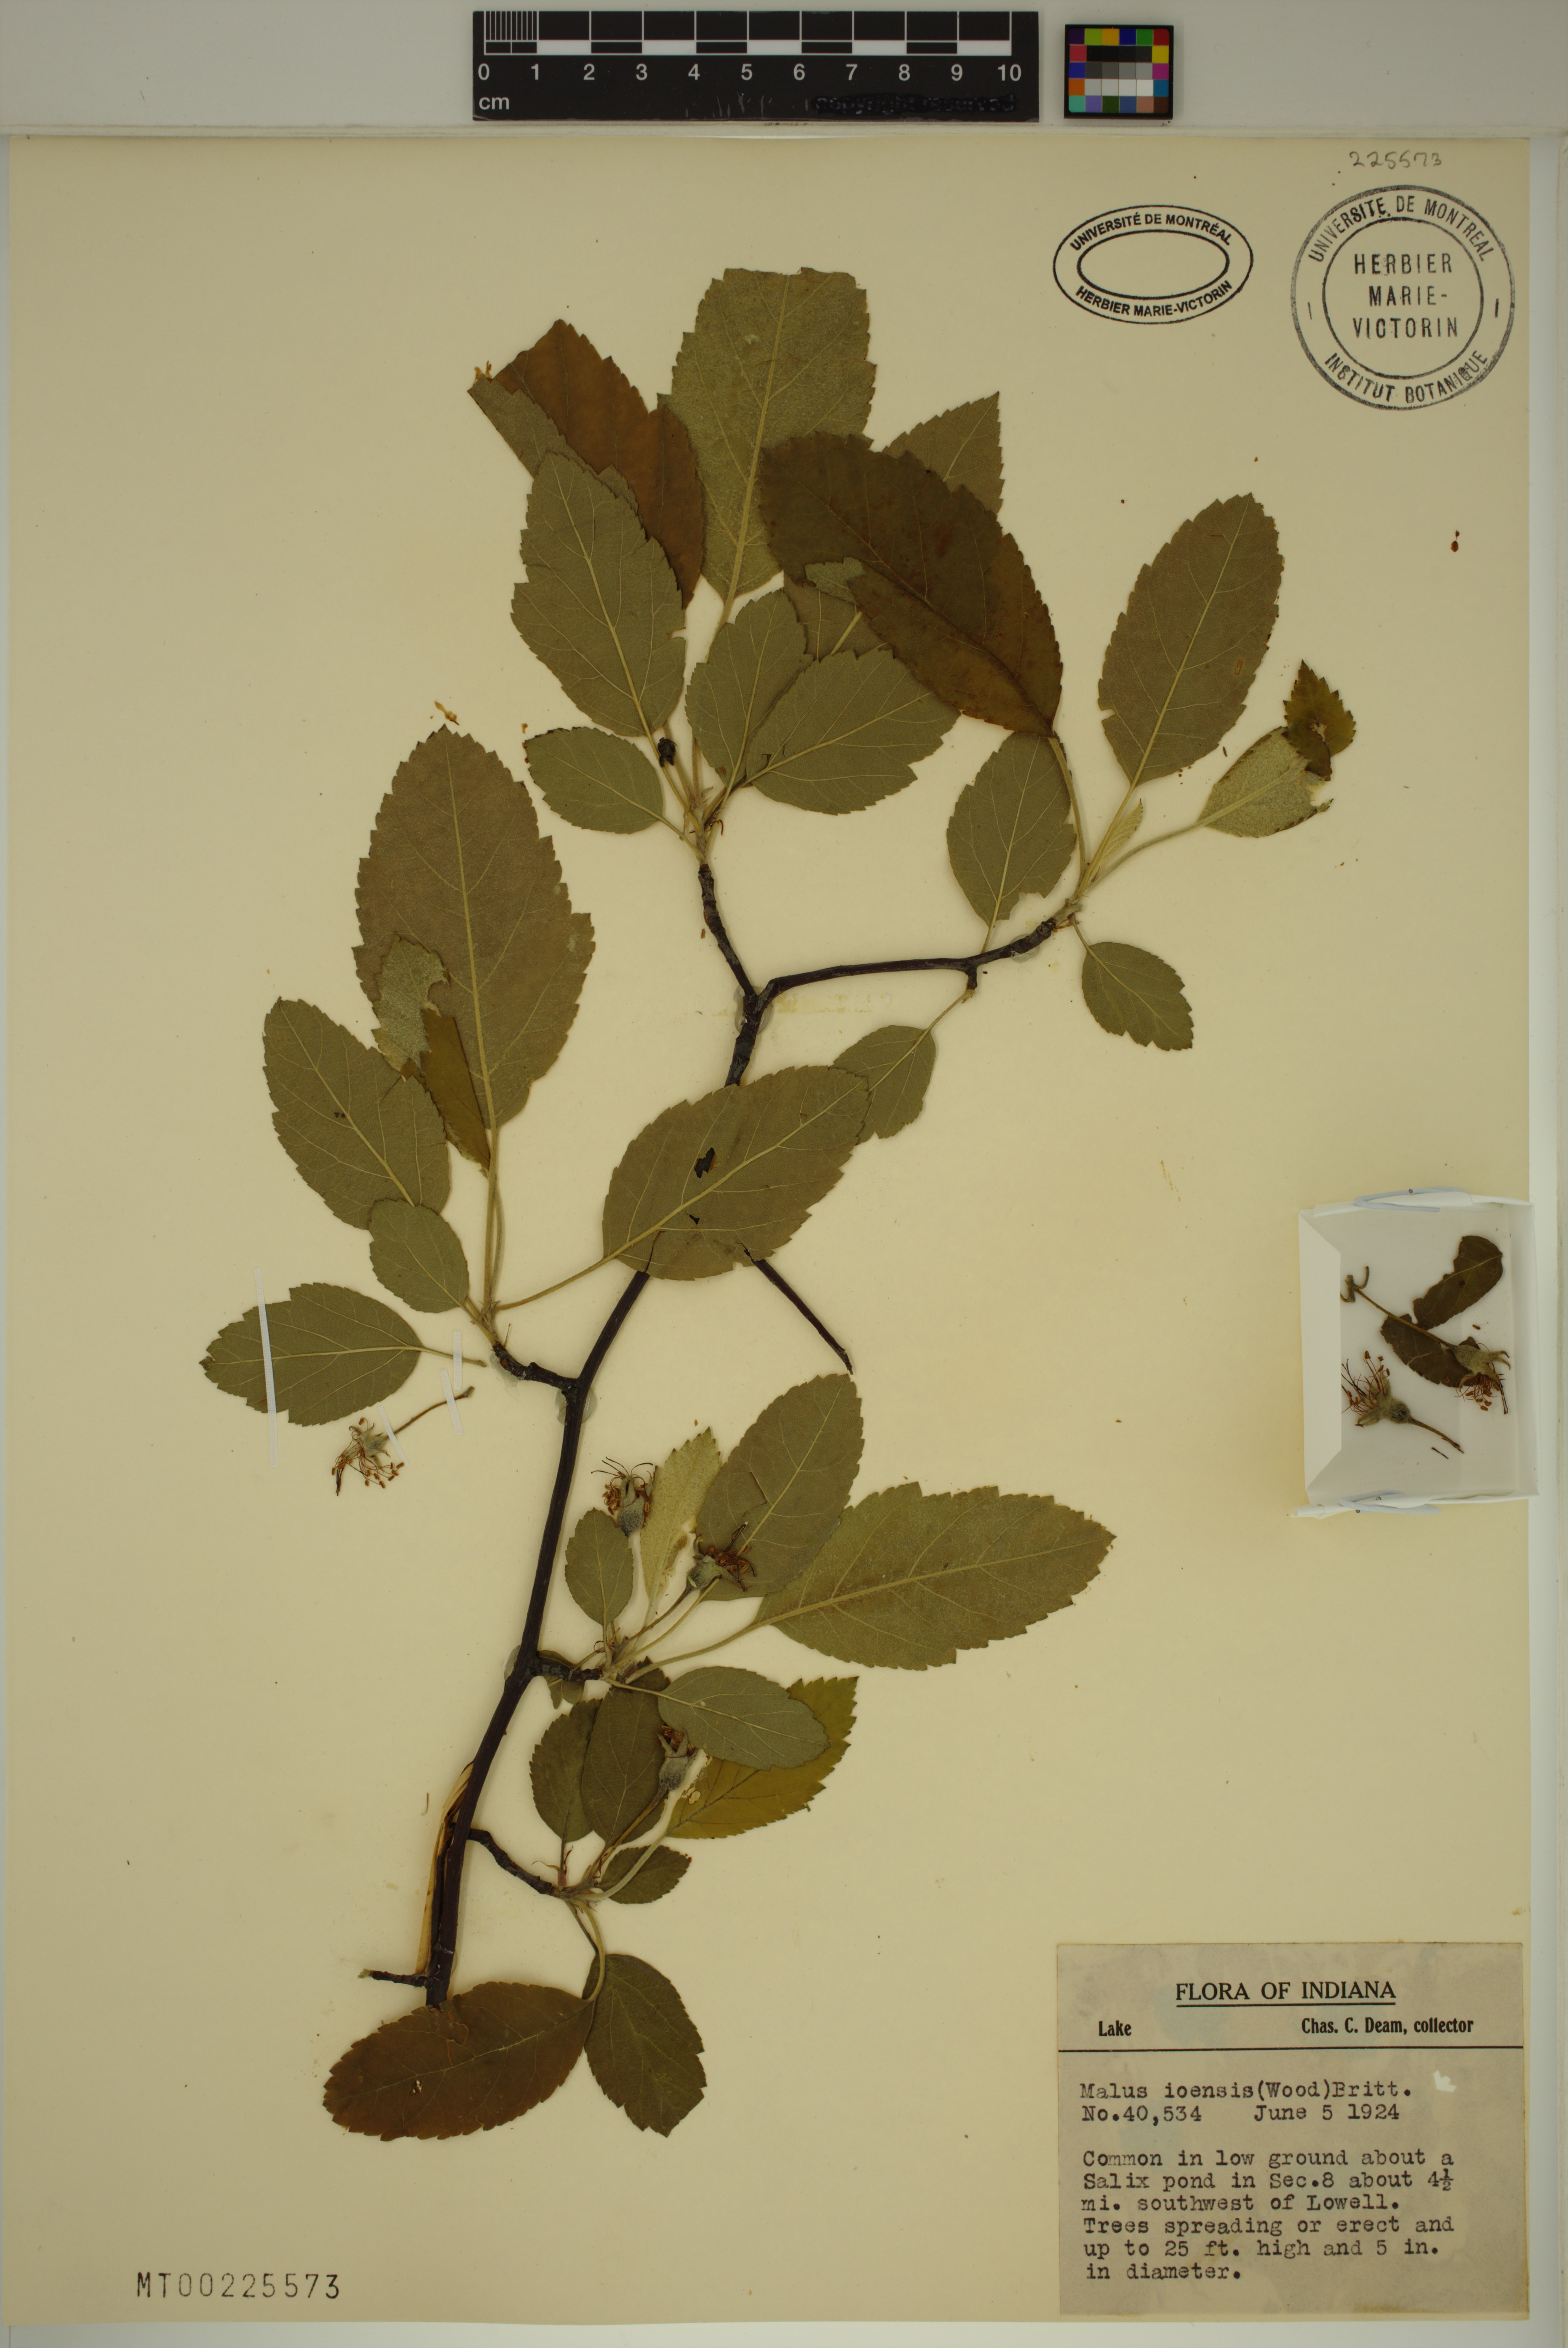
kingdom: Plantae
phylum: Tracheophyta
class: Magnoliopsida
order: Rosales
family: Rosaceae
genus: Malus
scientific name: Malus ioensis
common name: Iowa crab apple
